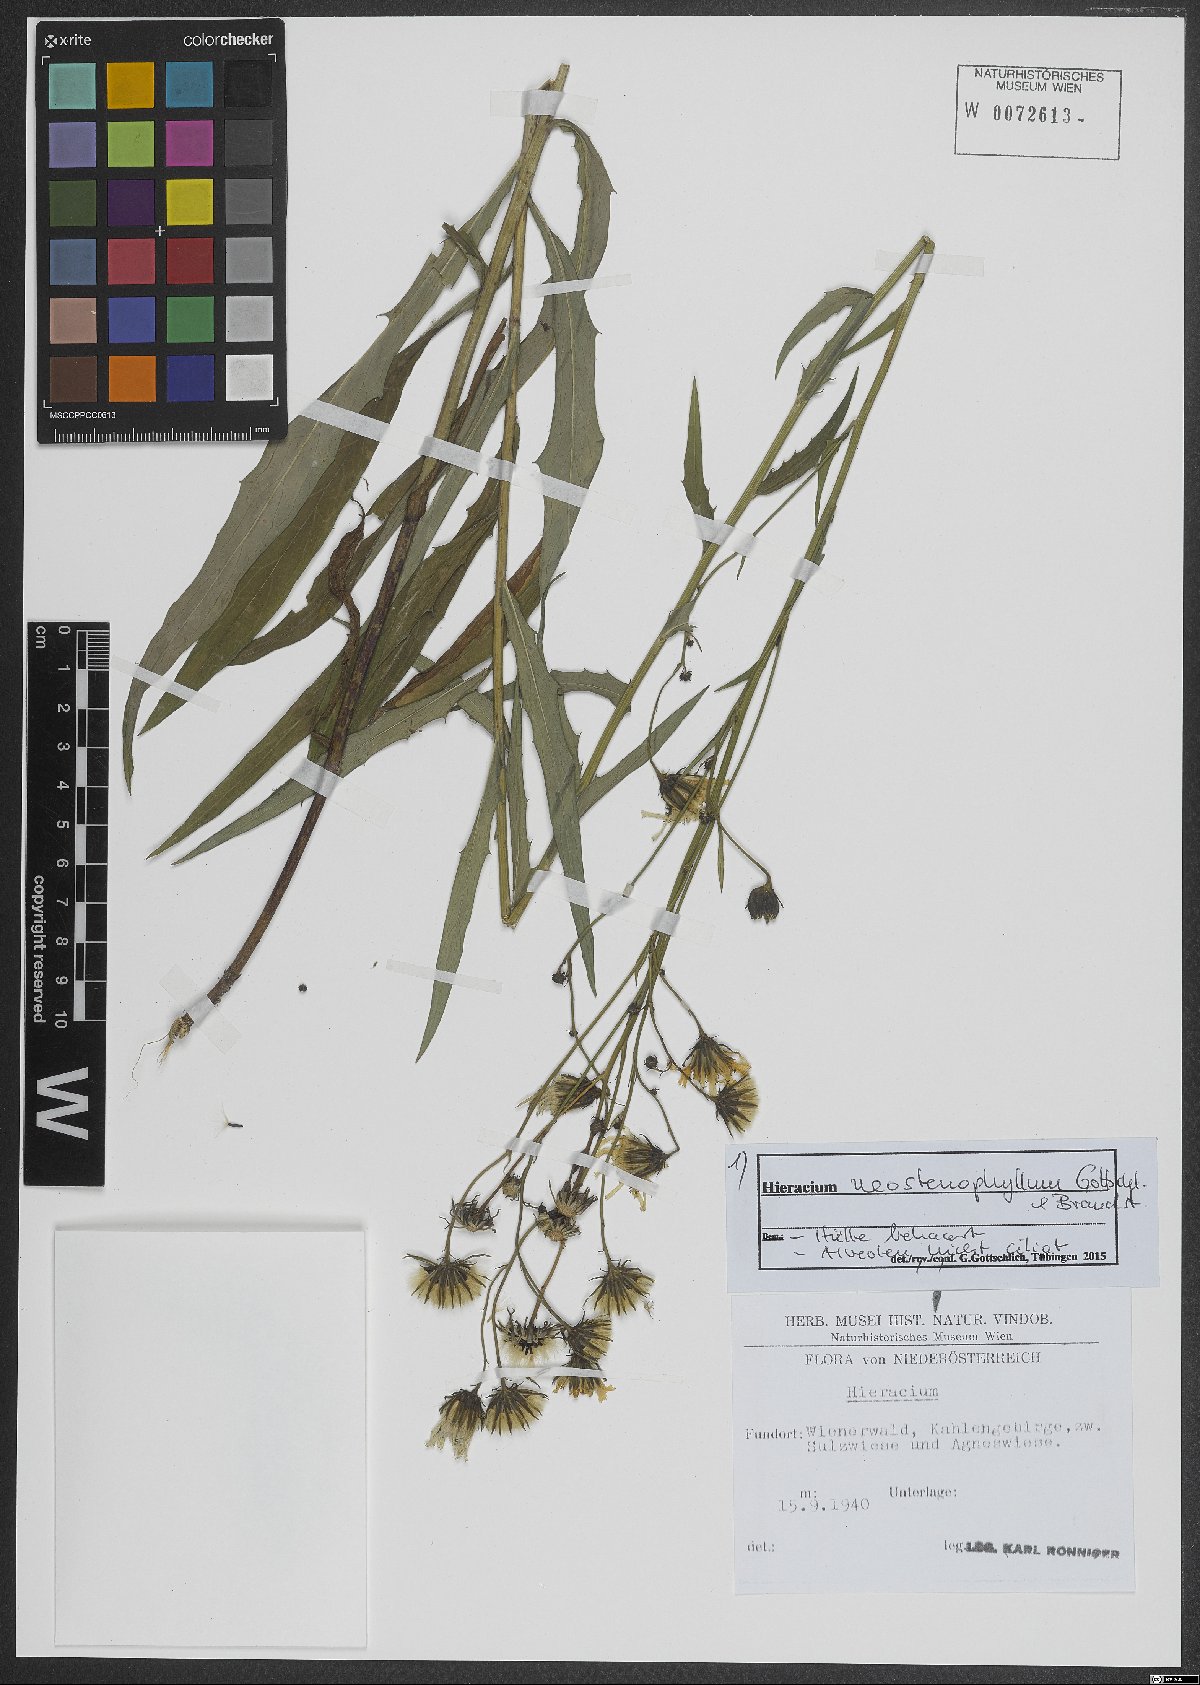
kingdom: Plantae
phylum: Tracheophyta
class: Magnoliopsida
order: Asterales
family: Asteraceae
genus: Hieracium
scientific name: Hieracium neostenophyllum
